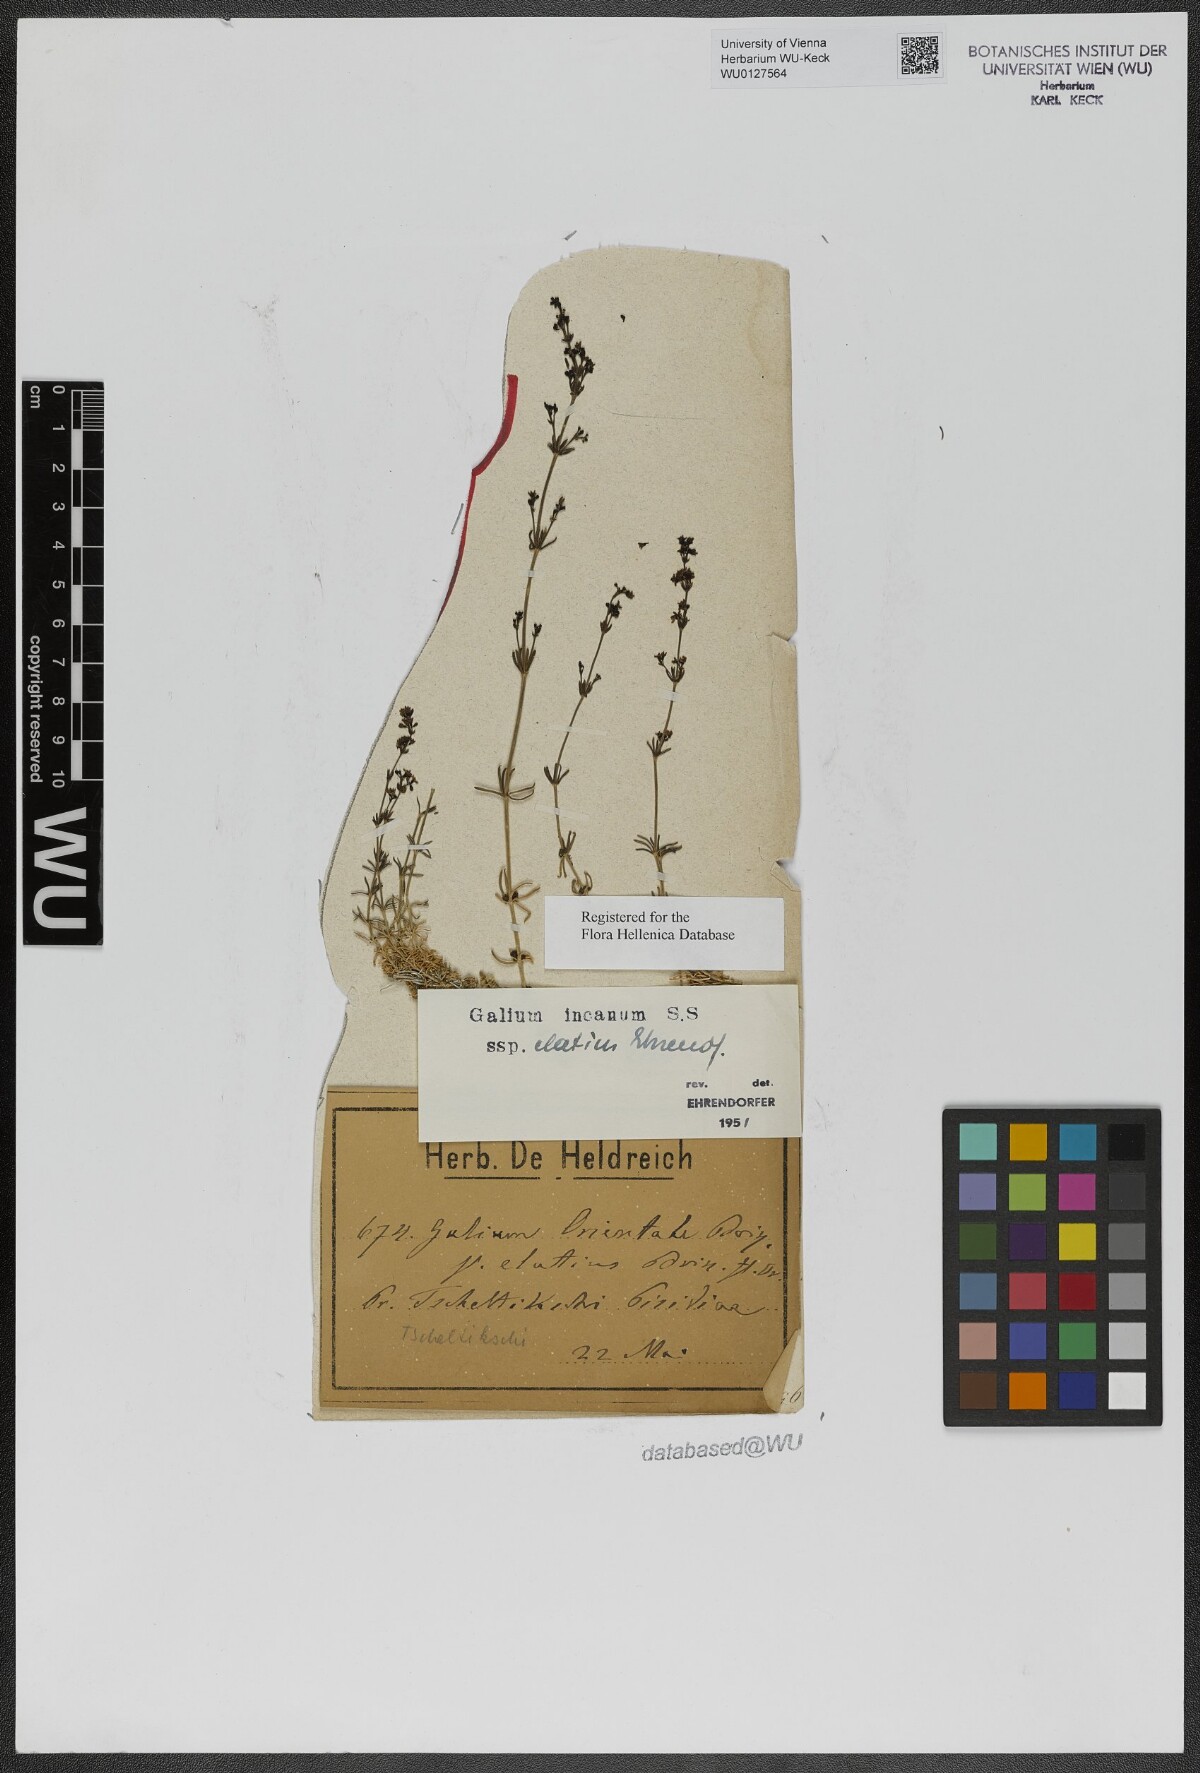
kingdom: Plantae
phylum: Tracheophyta
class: Magnoliopsida
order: Gentianales
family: Rubiaceae
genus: Galium
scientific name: Galium incanum
